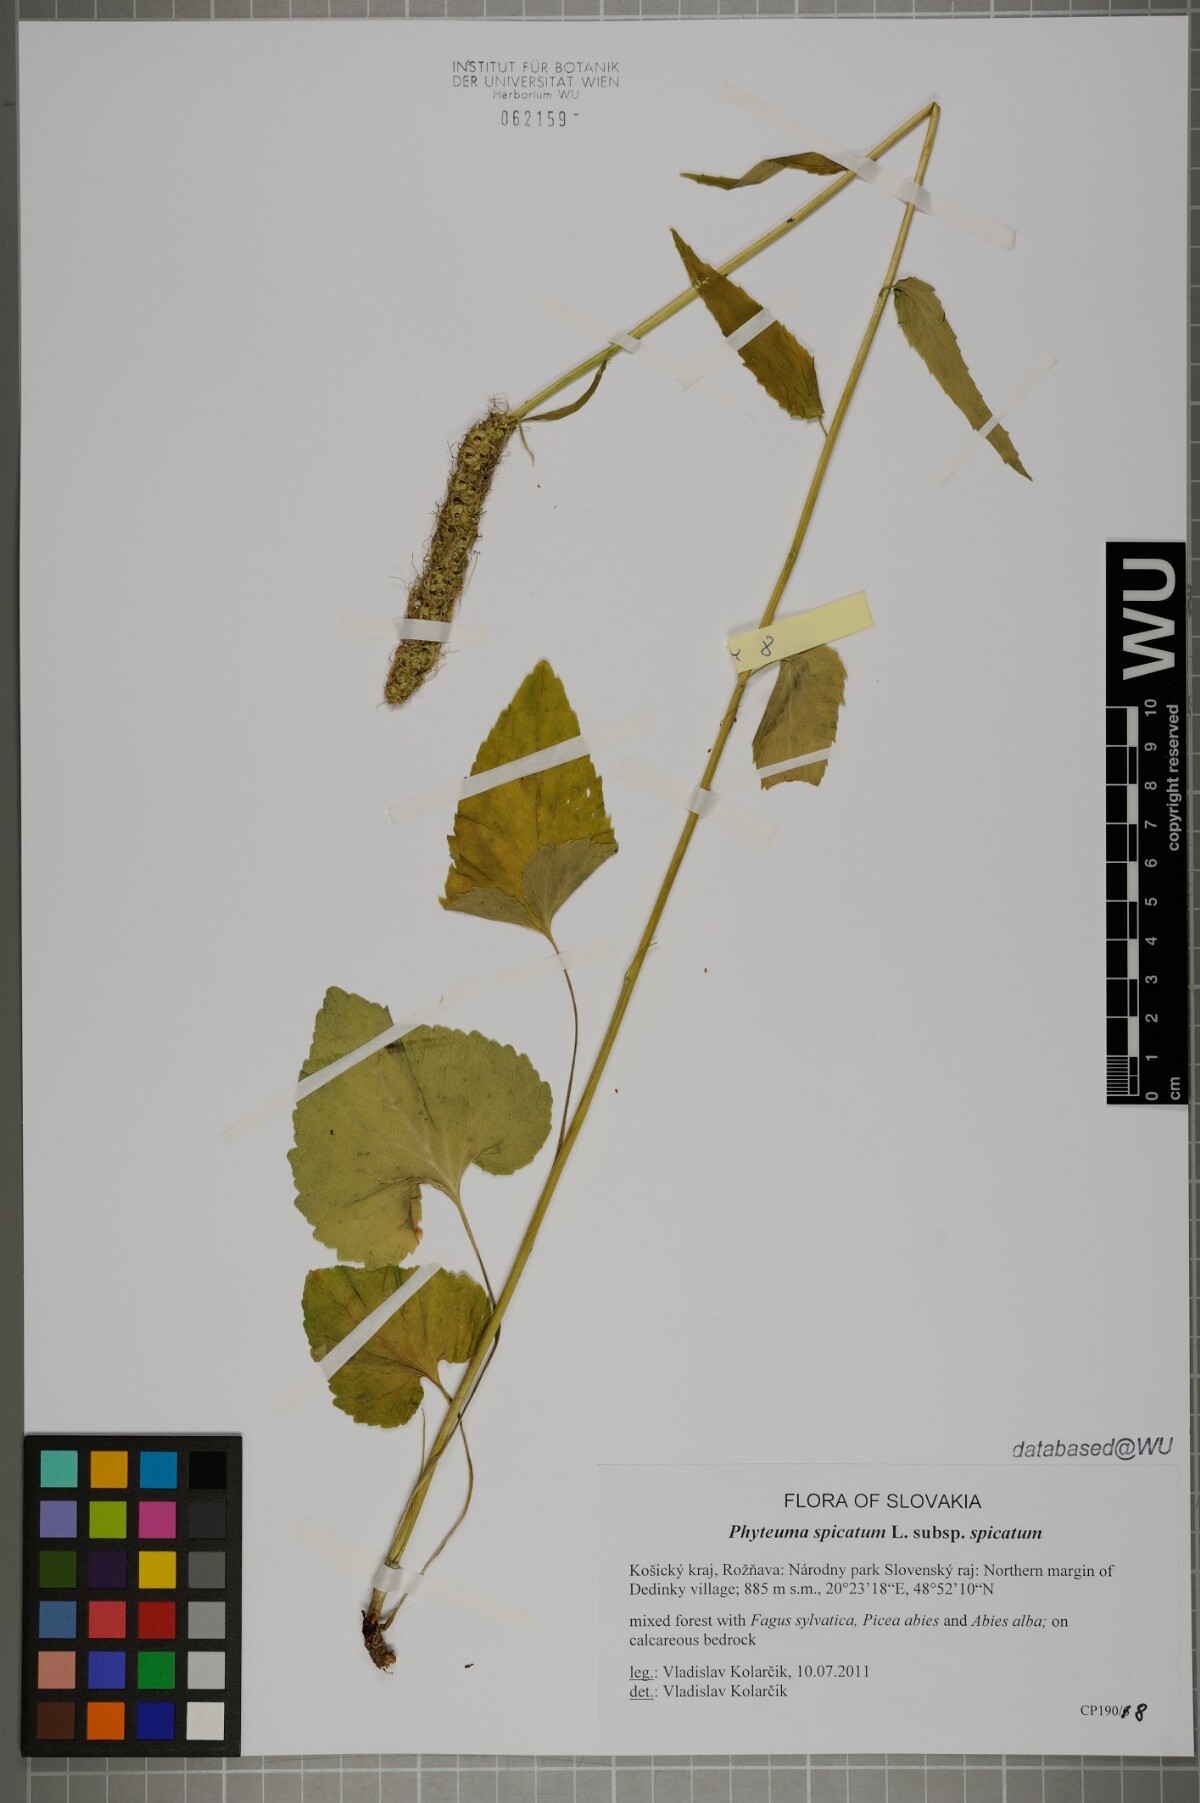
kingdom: Plantae
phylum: Tracheophyta
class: Magnoliopsida
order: Asterales
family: Campanulaceae
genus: Phyteuma
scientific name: Phyteuma spicatum
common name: Spiked rampion
